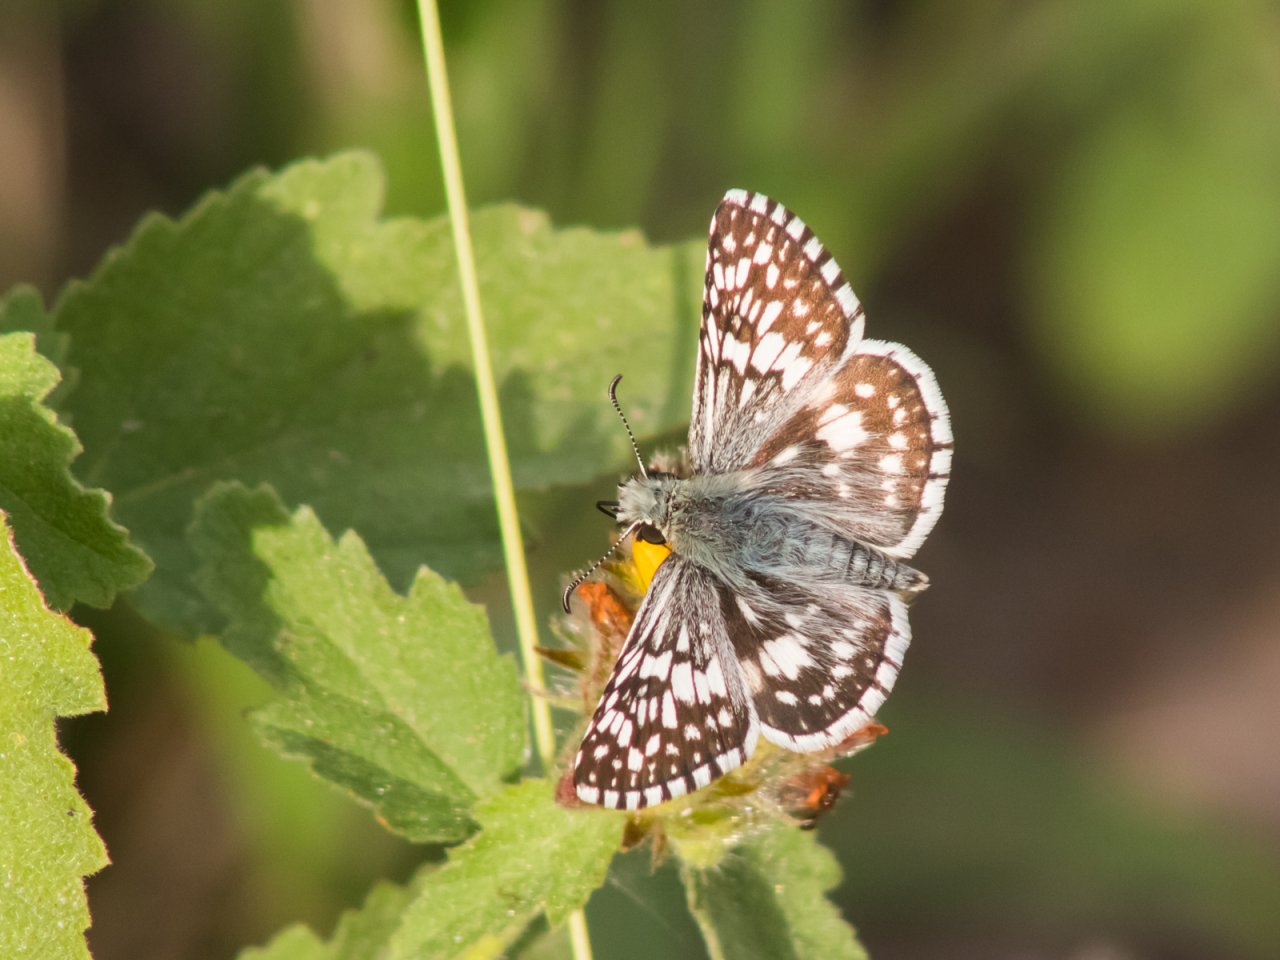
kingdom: Animalia
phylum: Arthropoda
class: Insecta
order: Lepidoptera
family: Hesperiidae
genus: Pyrgus
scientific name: Pyrgus oileus
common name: Desert Checkered-Skipper
